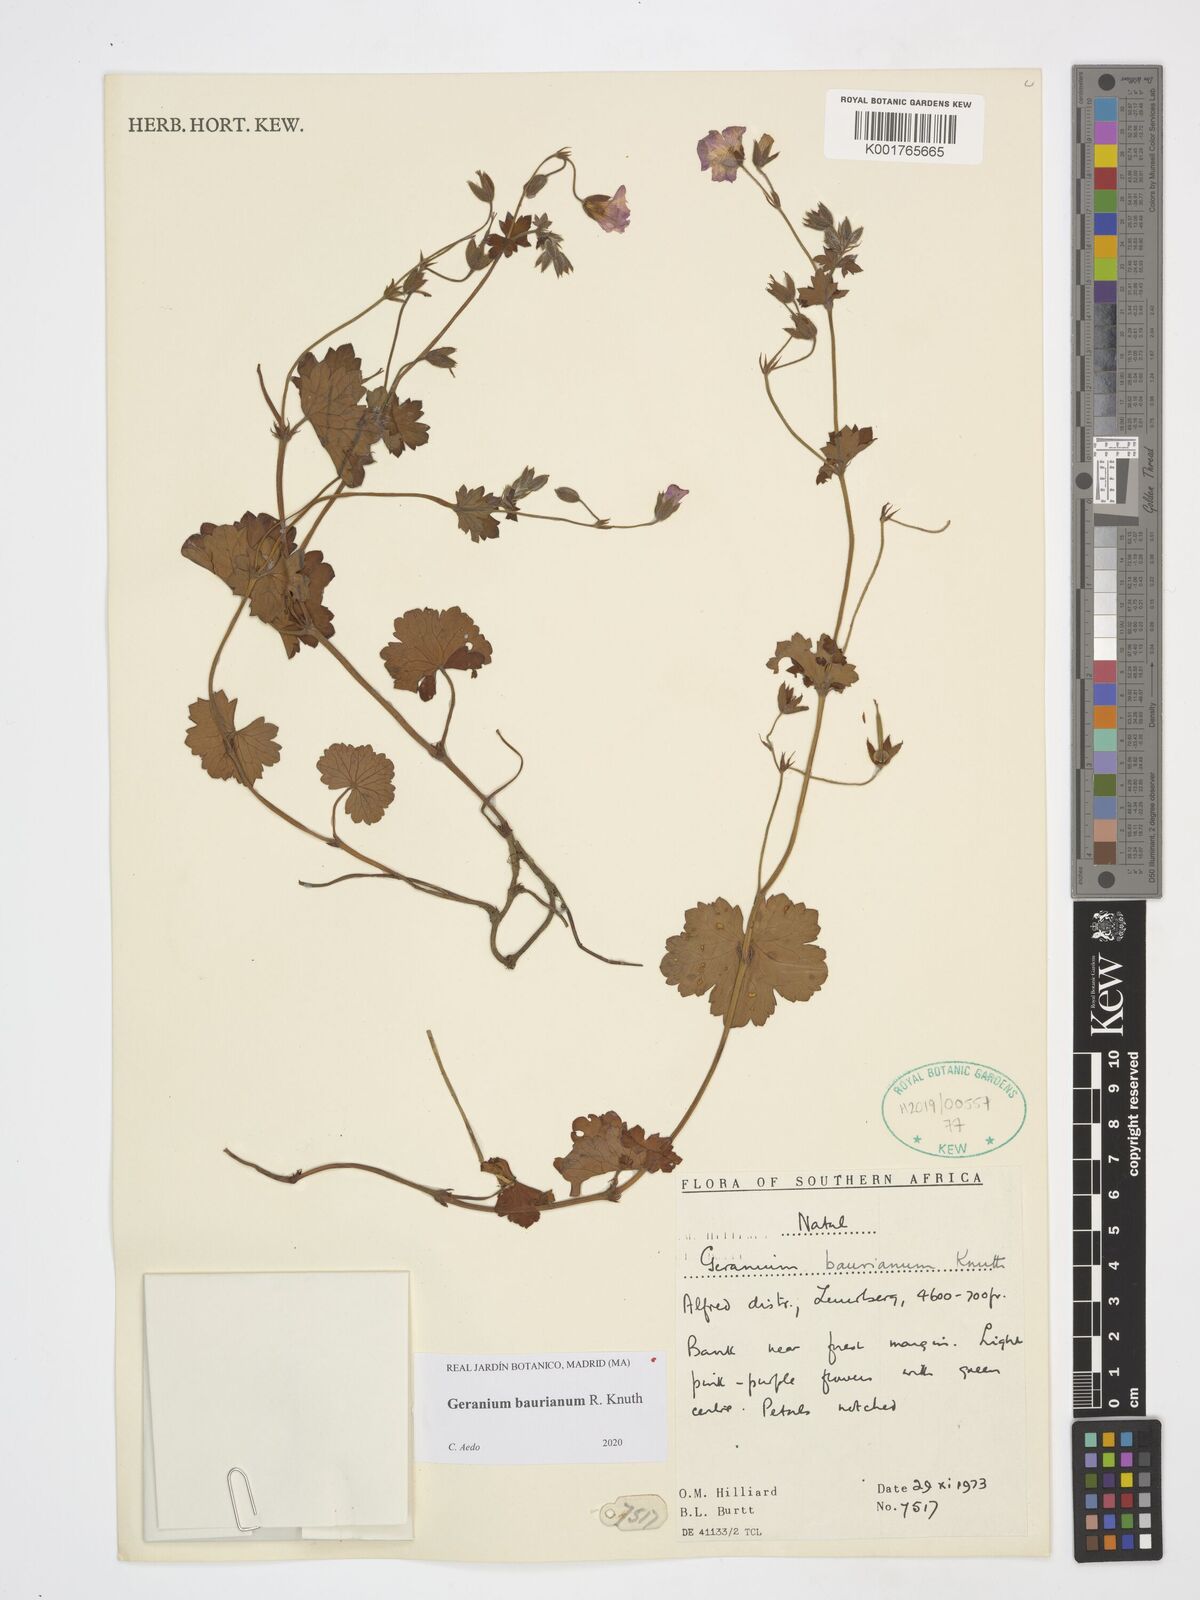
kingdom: Plantae
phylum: Tracheophyta
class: Magnoliopsida
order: Geraniales
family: Geraniaceae
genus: Geranium
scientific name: Geranium baurianum
